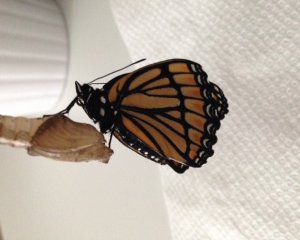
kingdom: Animalia
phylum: Arthropoda
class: Insecta
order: Lepidoptera
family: Nymphalidae
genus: Limenitis
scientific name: Limenitis archippus
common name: Viceroy
